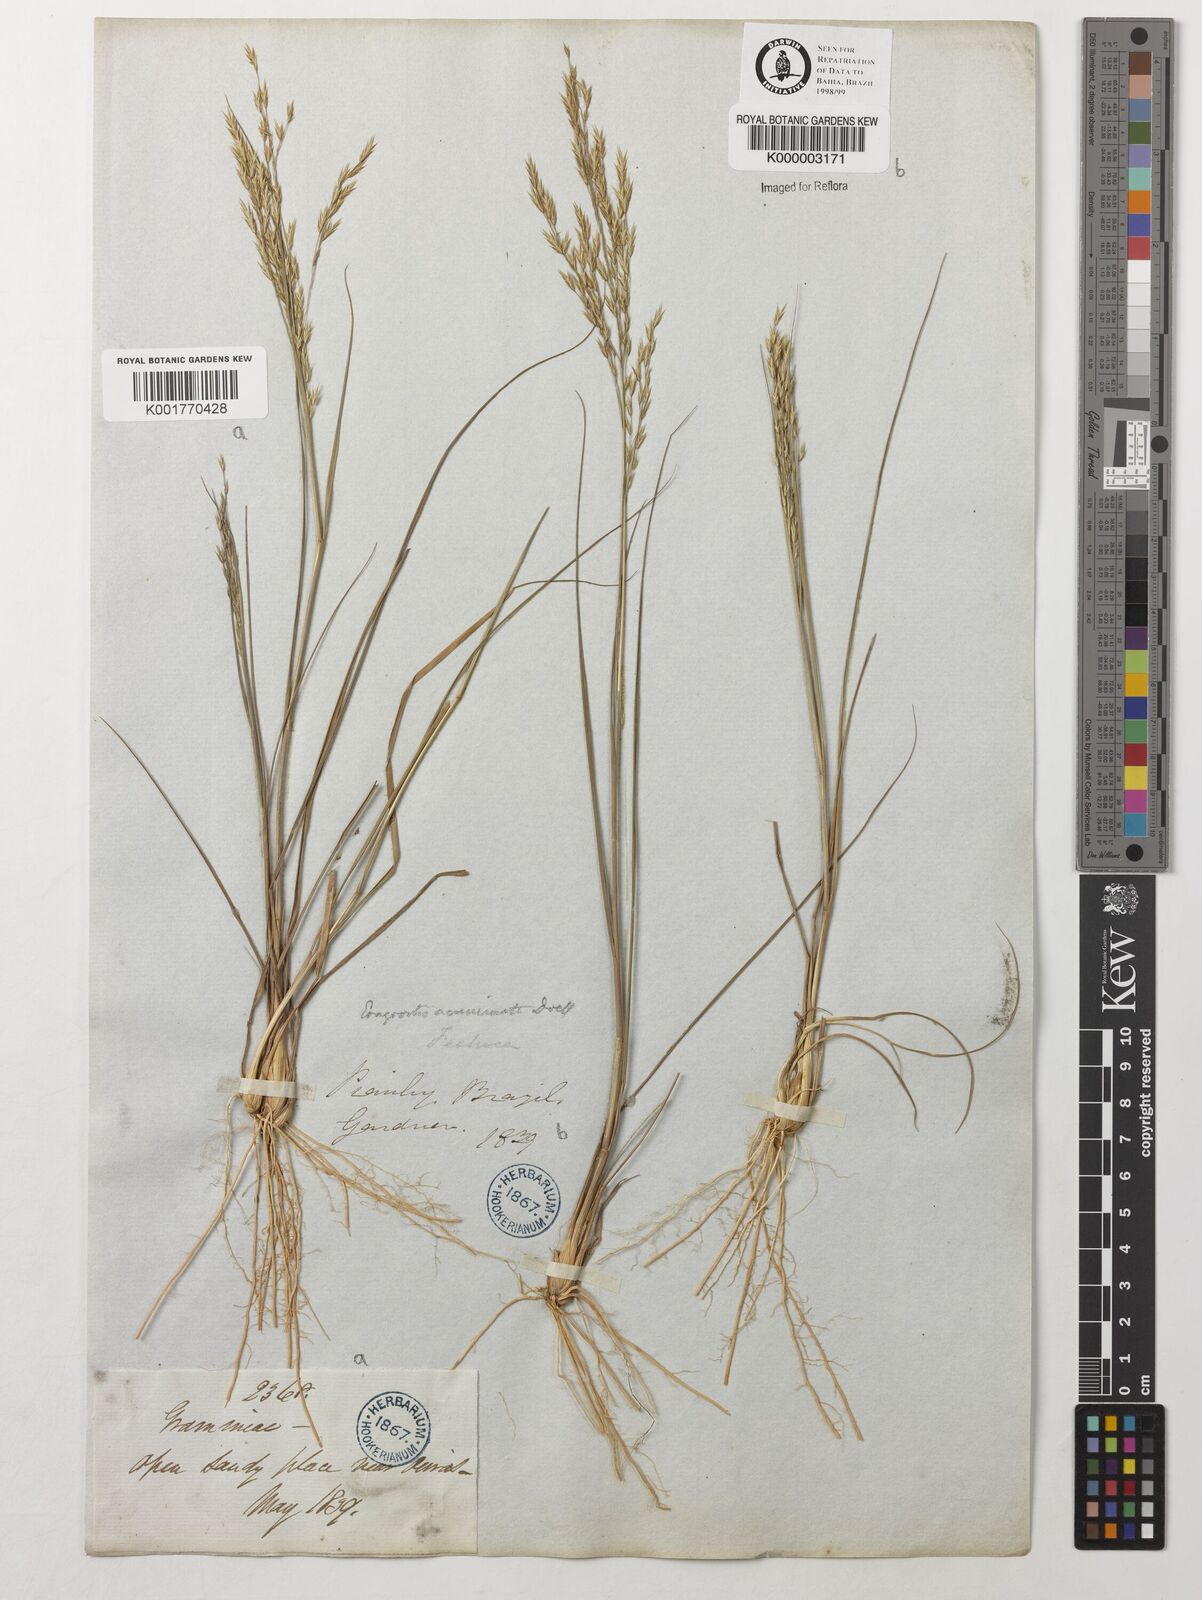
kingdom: Plantae
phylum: Tracheophyta
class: Liliopsida
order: Poales
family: Poaceae
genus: Steirachne
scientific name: Steirachne diandra
